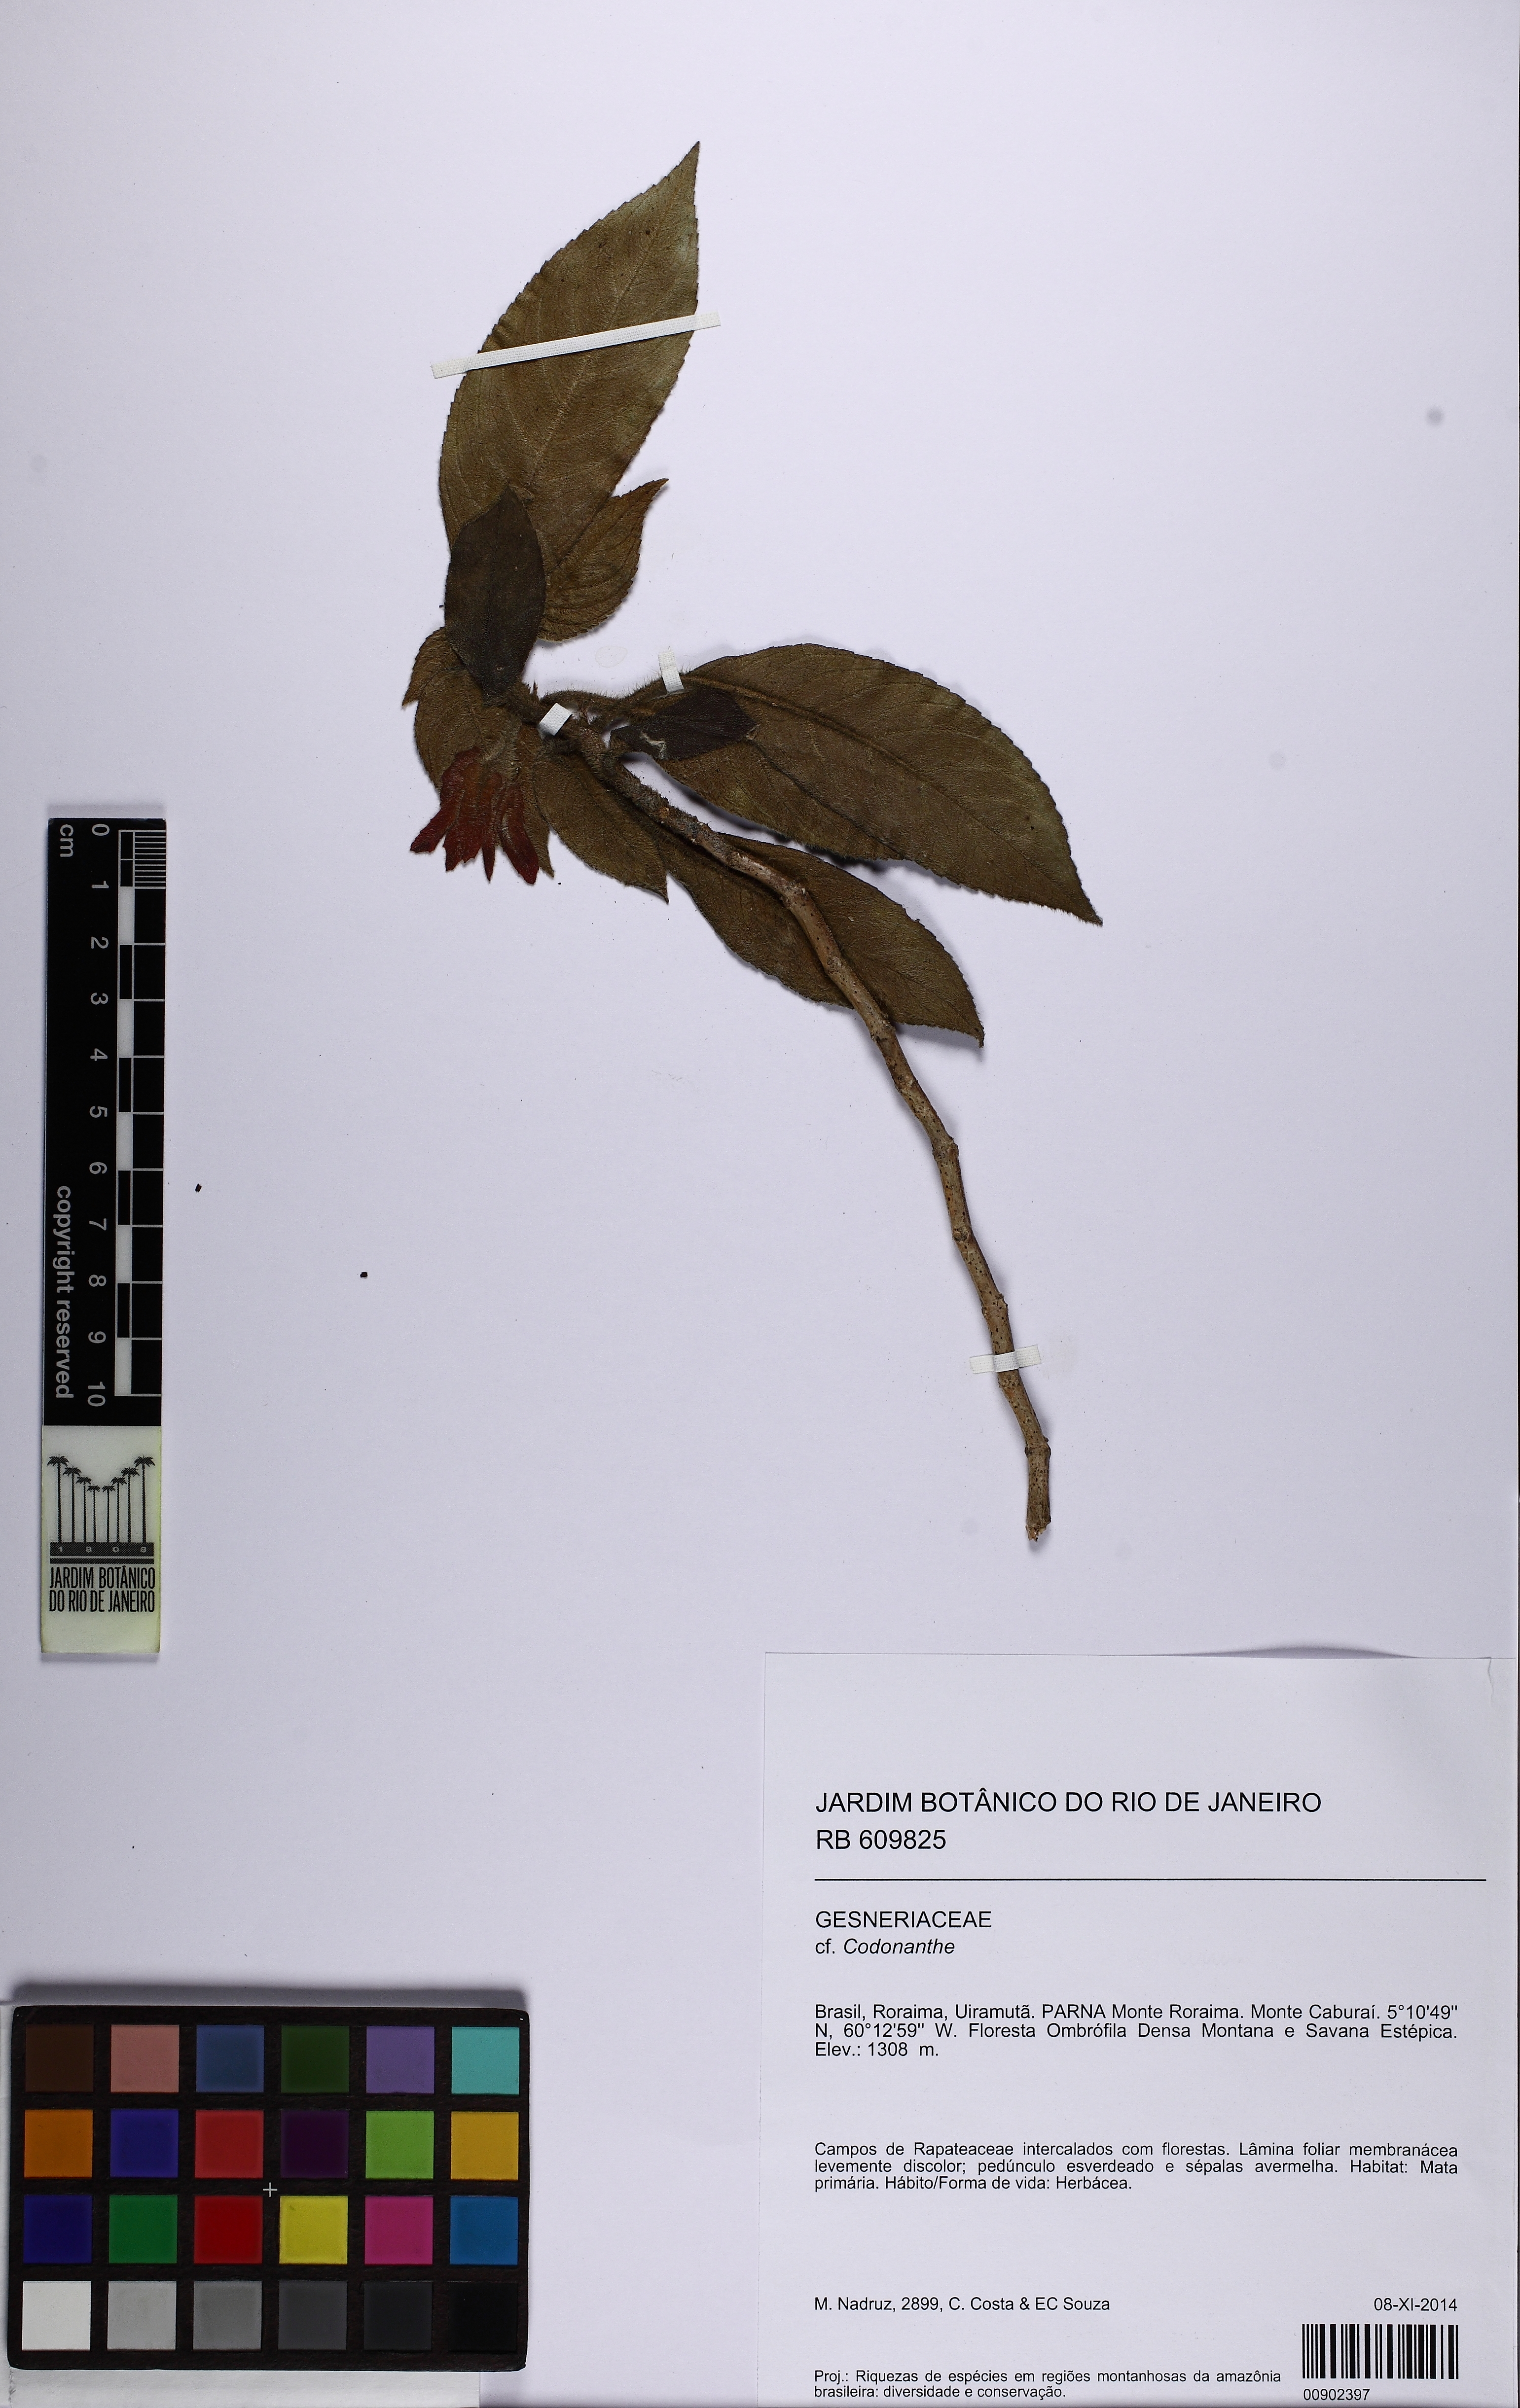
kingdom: Plantae
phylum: Tracheophyta
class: Magnoliopsida
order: Lamiales
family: Gesneriaceae
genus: Codonanthe
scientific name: Codonanthe
